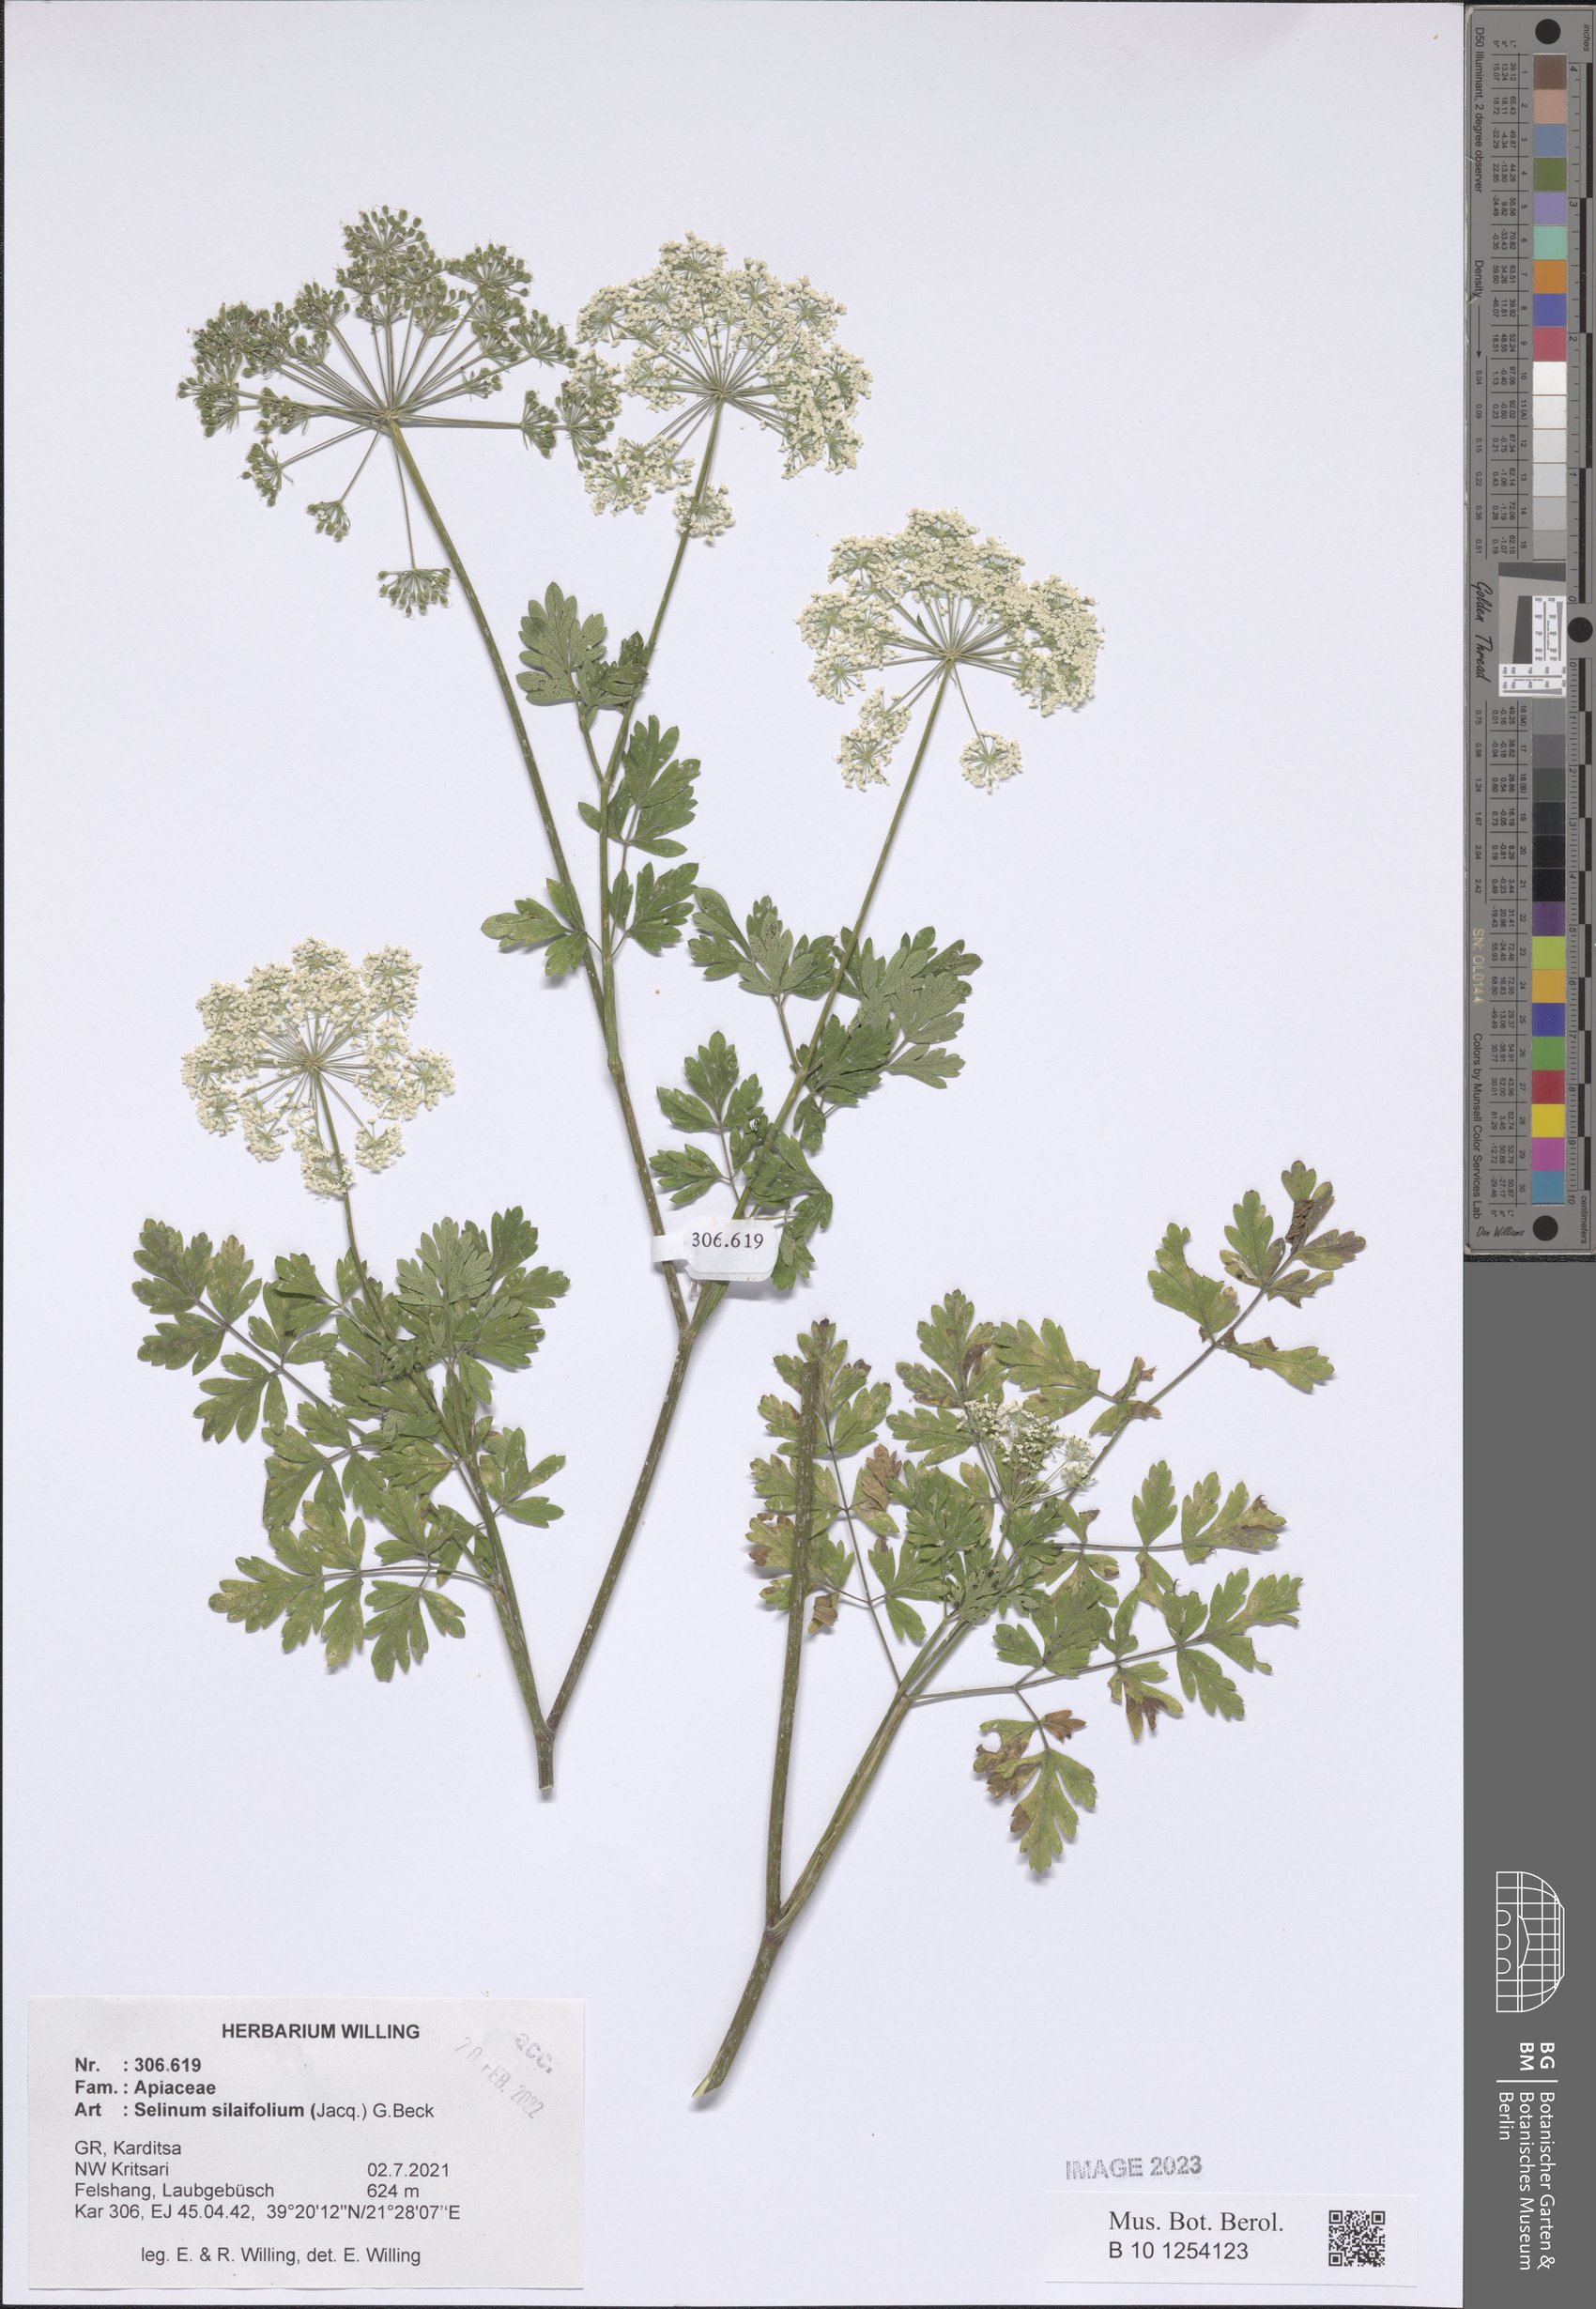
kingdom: Plantae
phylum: Tracheophyta
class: Magnoliopsida
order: Apiales
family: Apiaceae
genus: Katapsuxis
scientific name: Katapsuxis silaifolia
